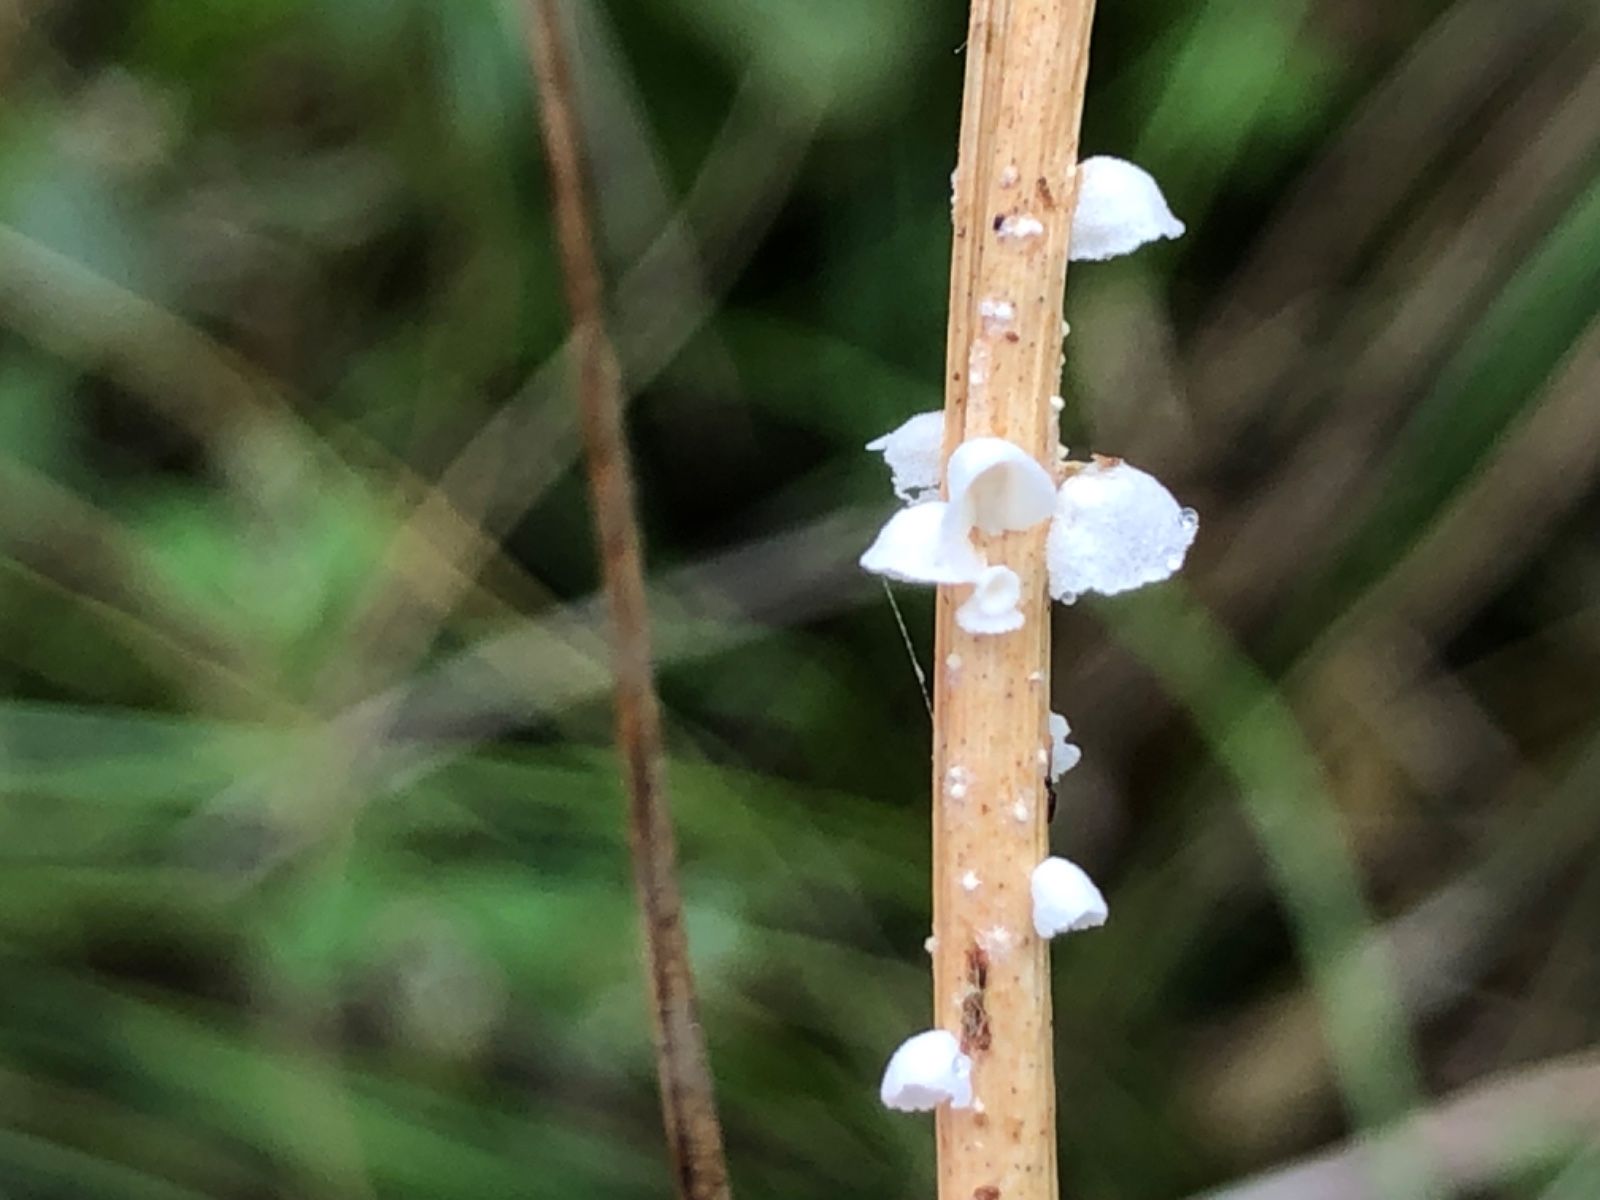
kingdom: Fungi
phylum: Basidiomycota
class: Agaricomycetes
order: Agaricales
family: Tricholomataceae
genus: Cellypha
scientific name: Cellypha goldbachii
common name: dråbeskål
